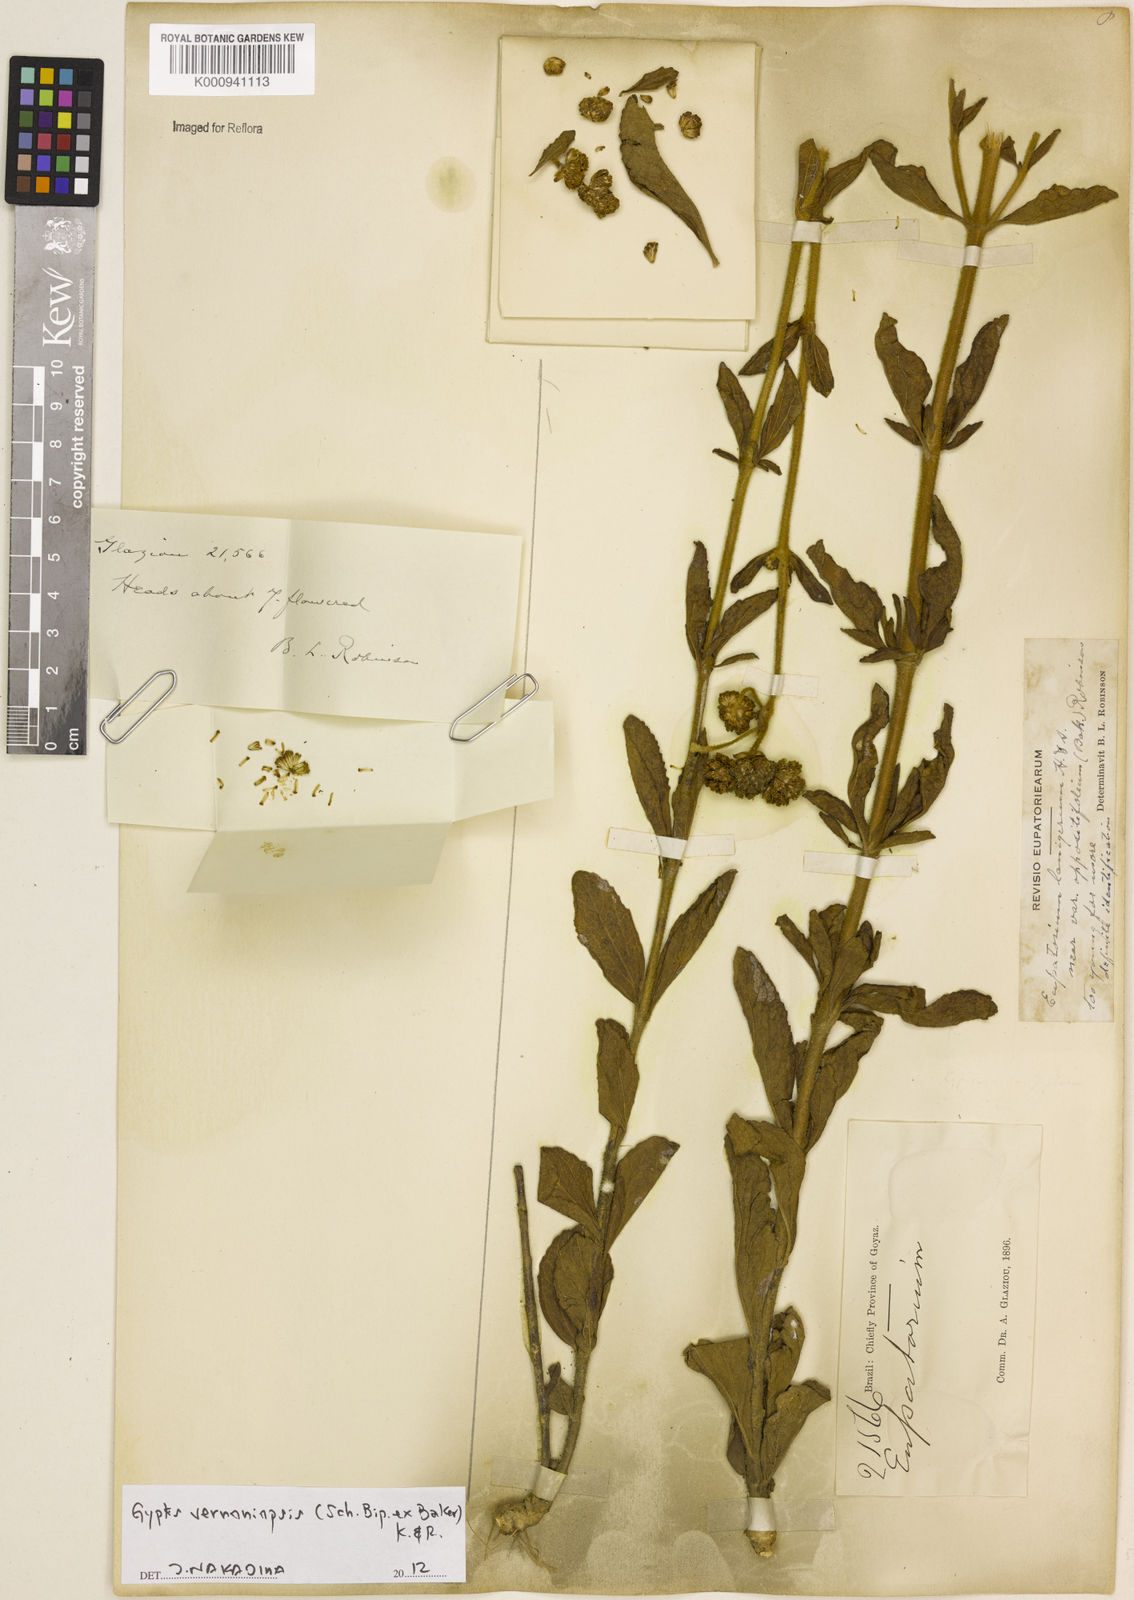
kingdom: Plantae
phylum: Tracheophyta
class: Magnoliopsida
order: Asterales
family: Asteraceae
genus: Gyptis
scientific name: Gyptis lanigera
